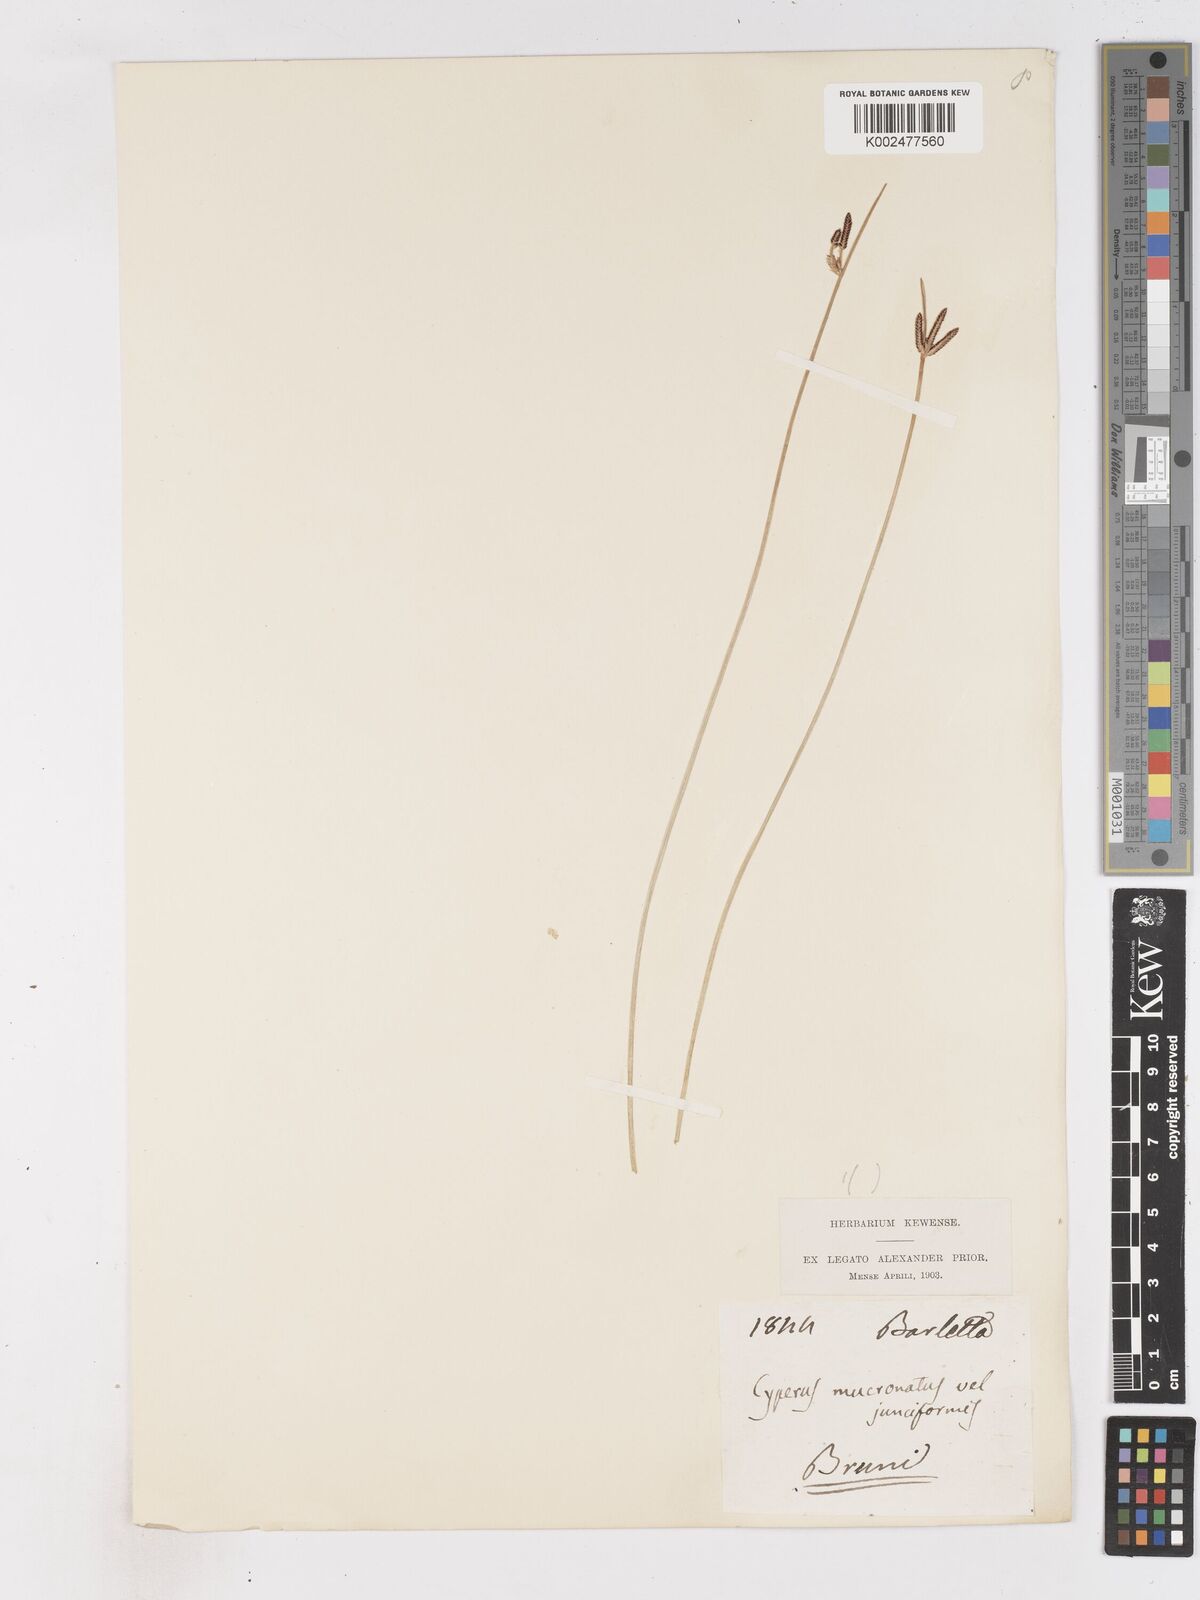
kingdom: Plantae
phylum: Tracheophyta
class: Liliopsida
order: Poales
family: Cyperaceae
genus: Cyperus
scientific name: Cyperus laevigatus
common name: Smooth flat sedge
